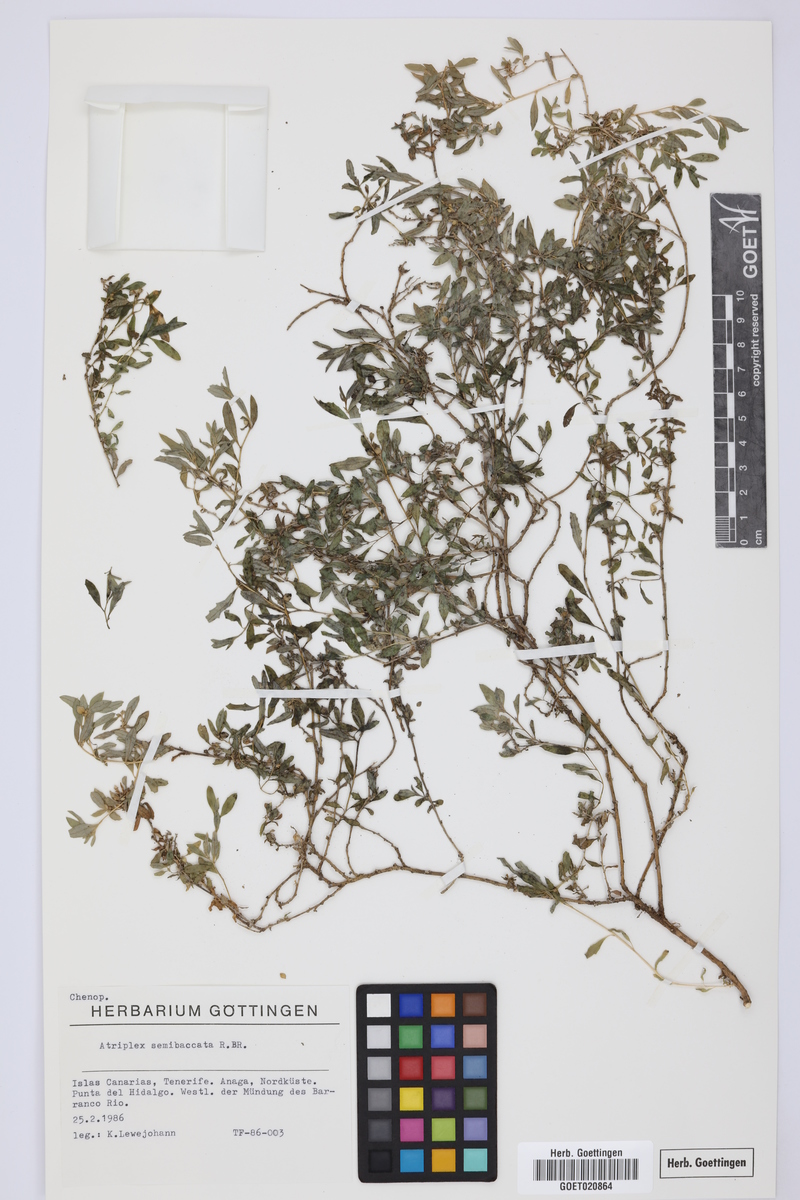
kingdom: Plantae
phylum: Tracheophyta
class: Magnoliopsida
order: Caryophyllales
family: Amaranthaceae
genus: Atriplex
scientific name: Atriplex semibaccata
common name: Australian saltbush
